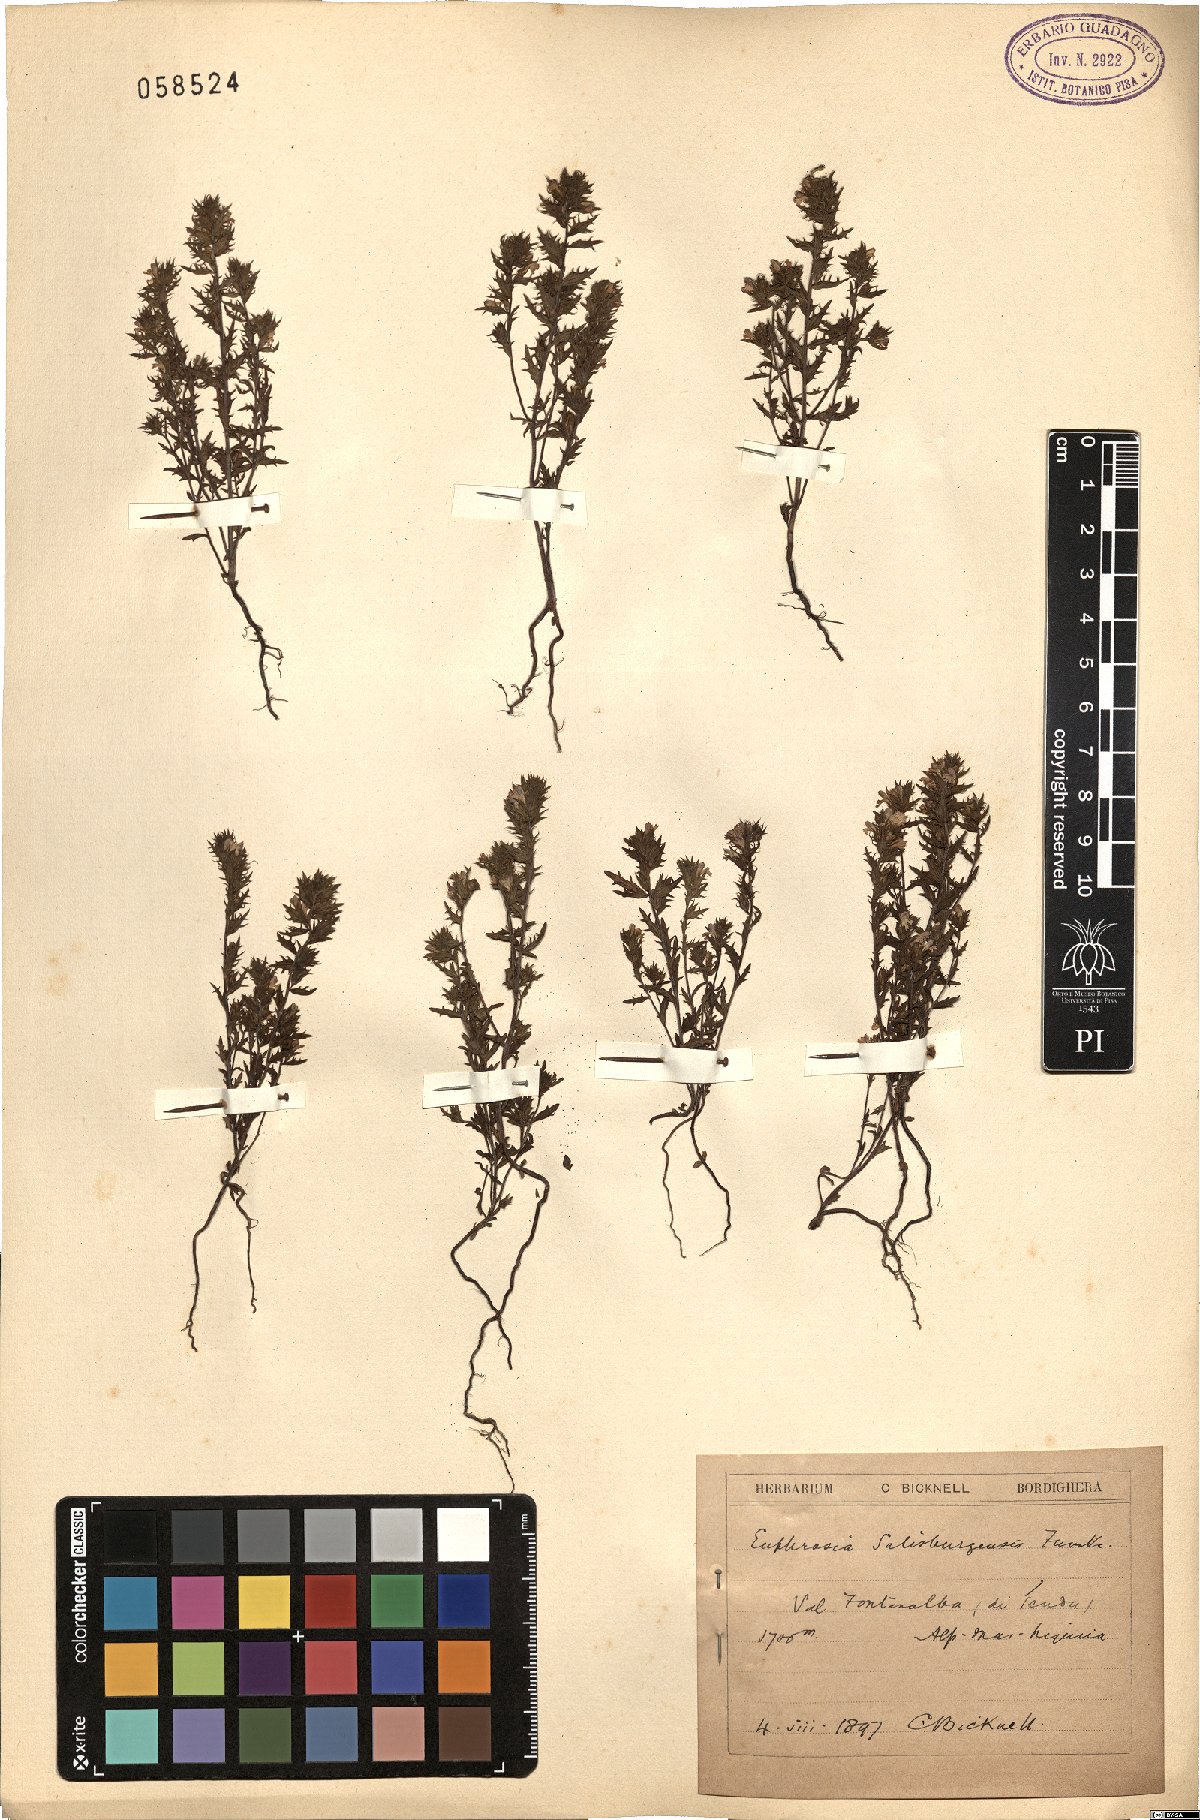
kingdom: Plantae
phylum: Tracheophyta
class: Magnoliopsida
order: Lamiales
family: Orobanchaceae
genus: Euphrasia
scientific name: Euphrasia salisburgensis
